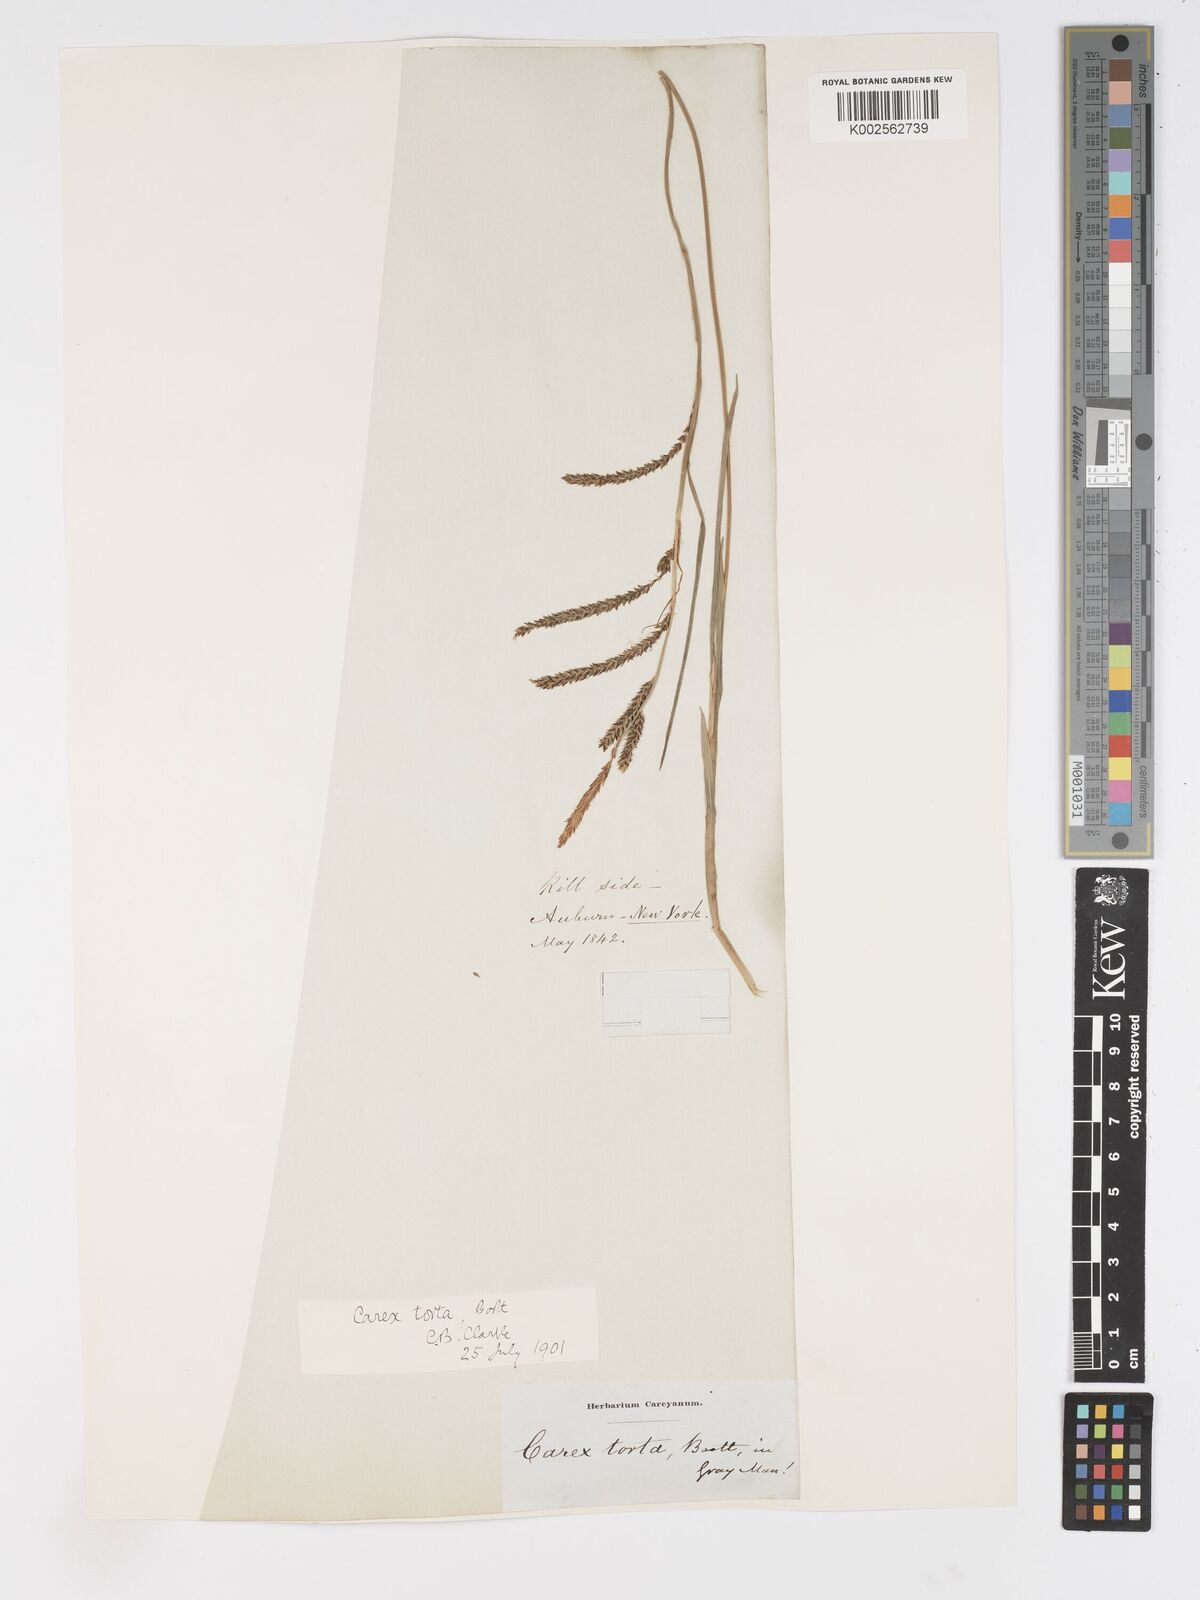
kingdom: Plantae
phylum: Tracheophyta
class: Liliopsida
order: Poales
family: Cyperaceae
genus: Carex
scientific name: Carex torta
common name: Twisted sedge
